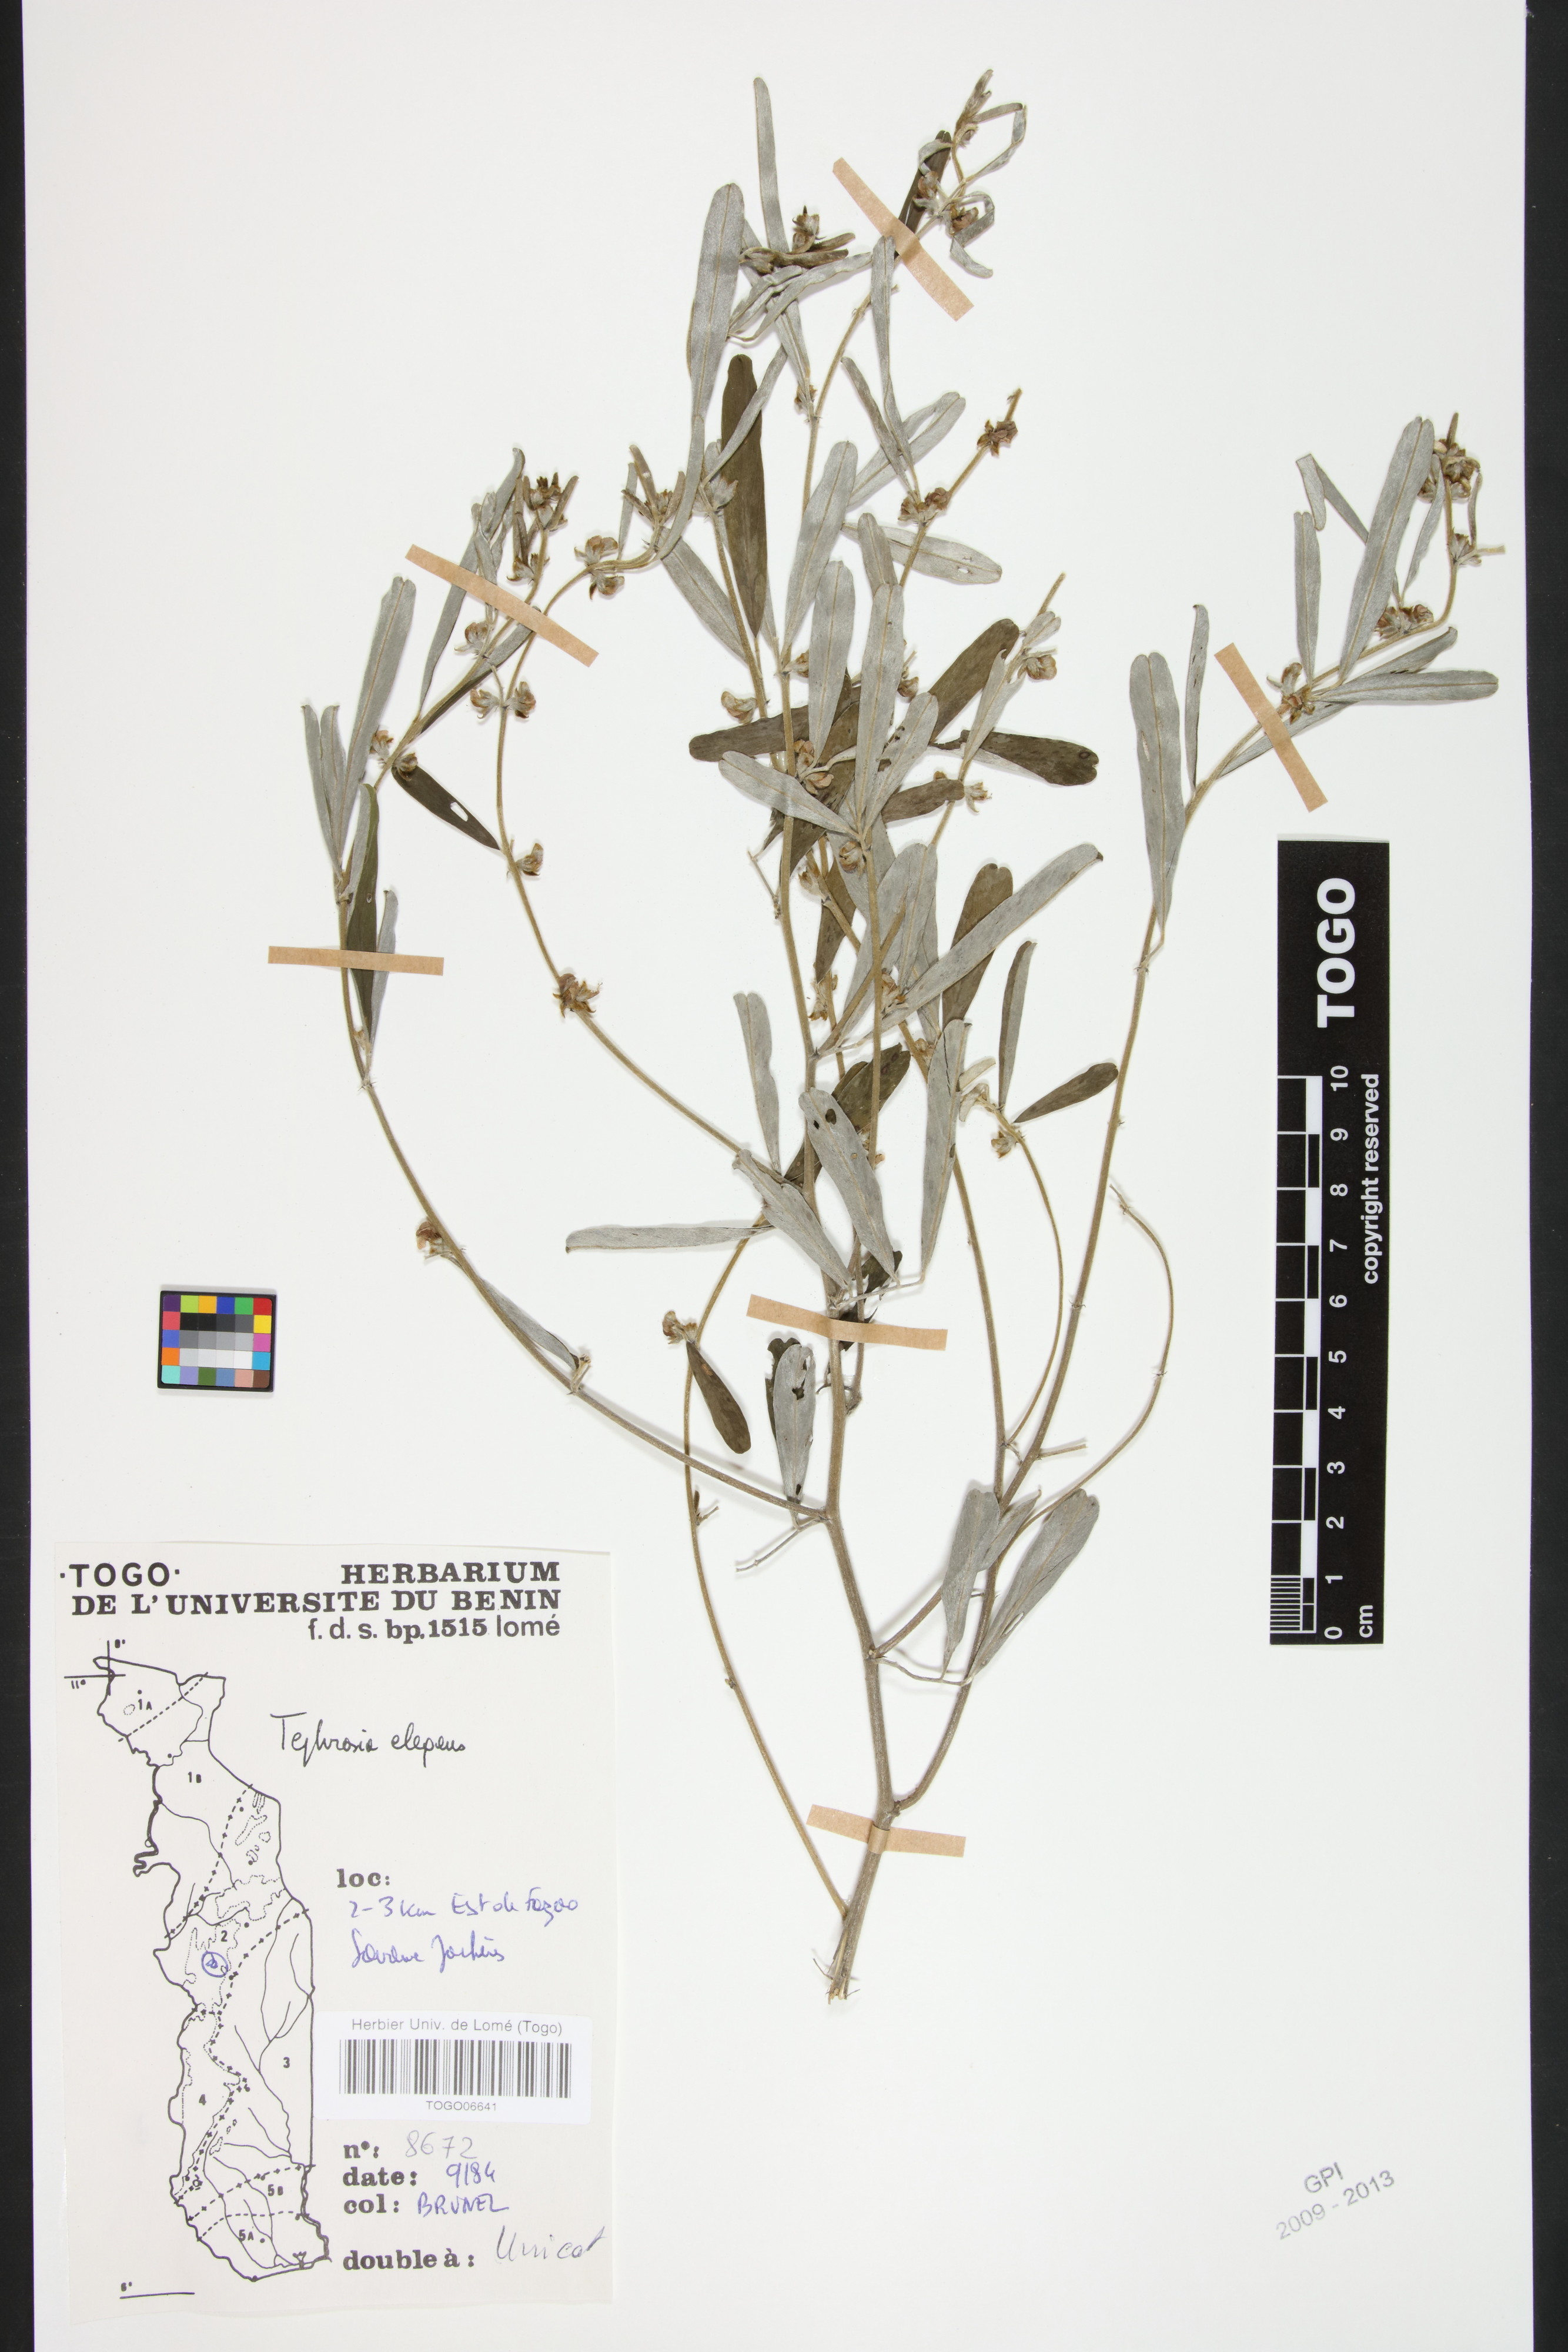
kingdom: Plantae
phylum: Tracheophyta
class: Magnoliopsida
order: Fabales
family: Fabaceae
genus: Tephrosia
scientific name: Tephrosia elegans
